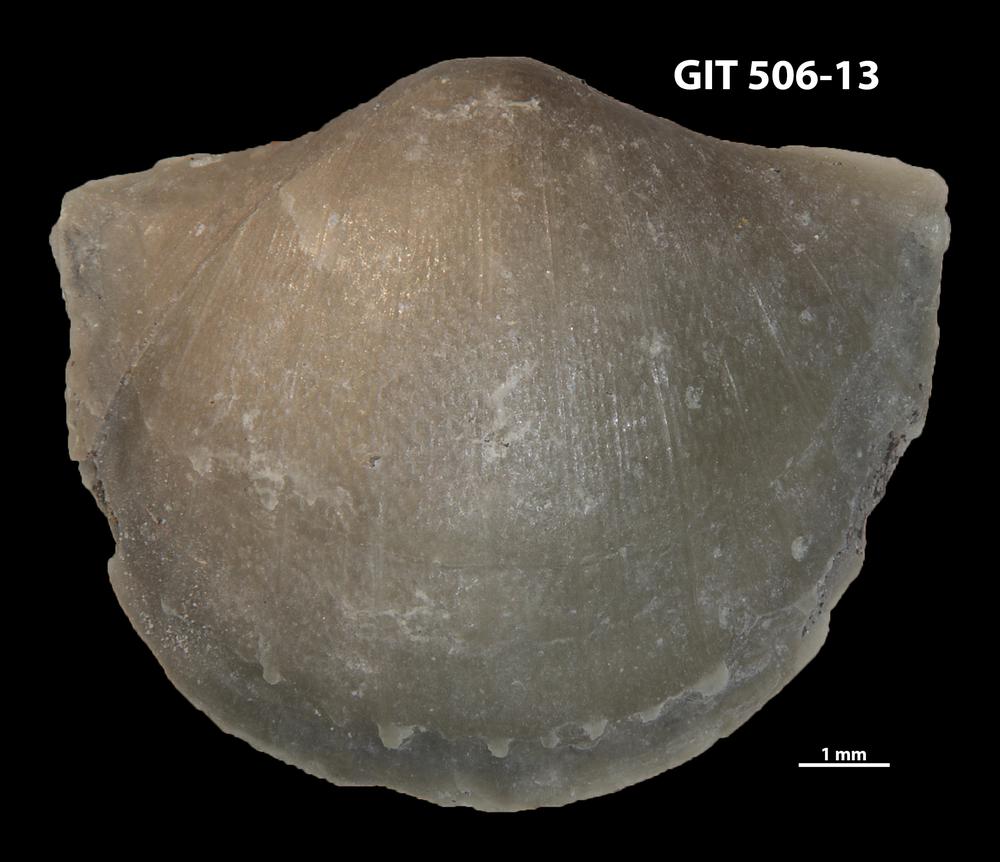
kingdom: Animalia
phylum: Brachiopoda
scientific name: Brachiopoda
